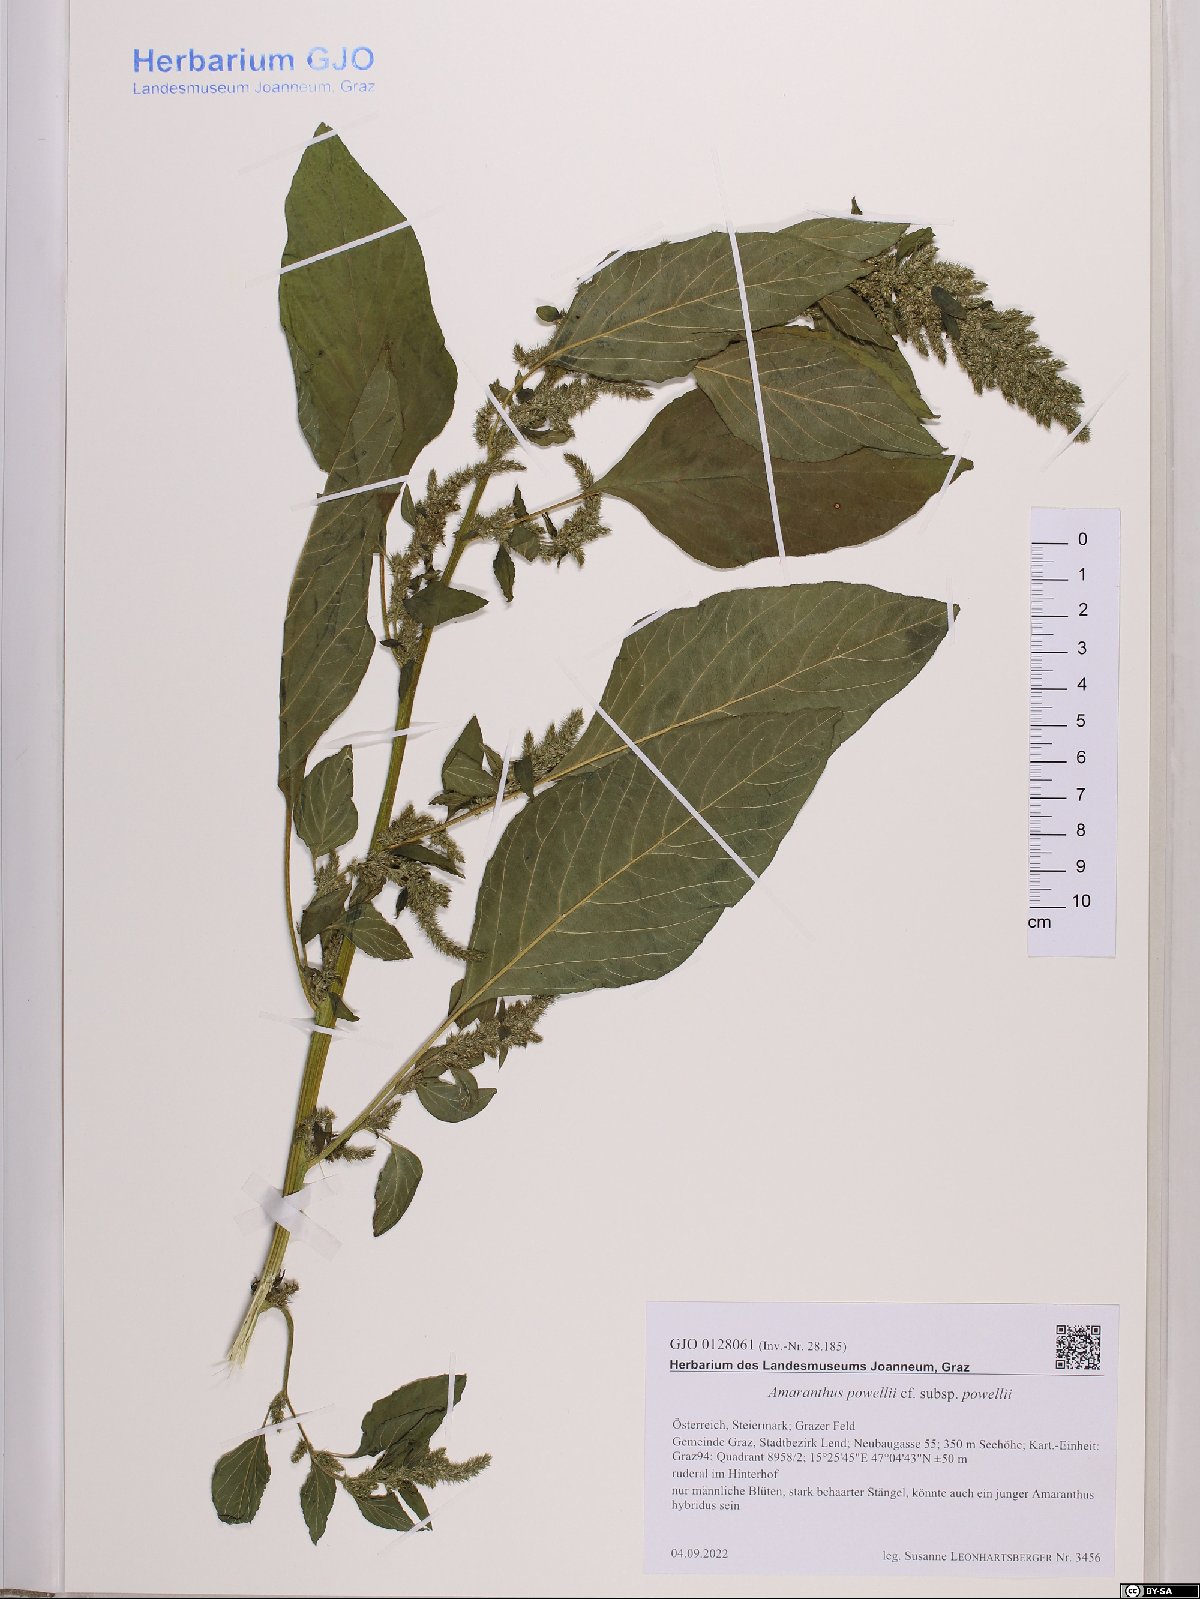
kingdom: Plantae
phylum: Tracheophyta
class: Magnoliopsida
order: Caryophyllales
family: Amaranthaceae
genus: Amaranthus
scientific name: Amaranthus powellii
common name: Powell's amaranth
